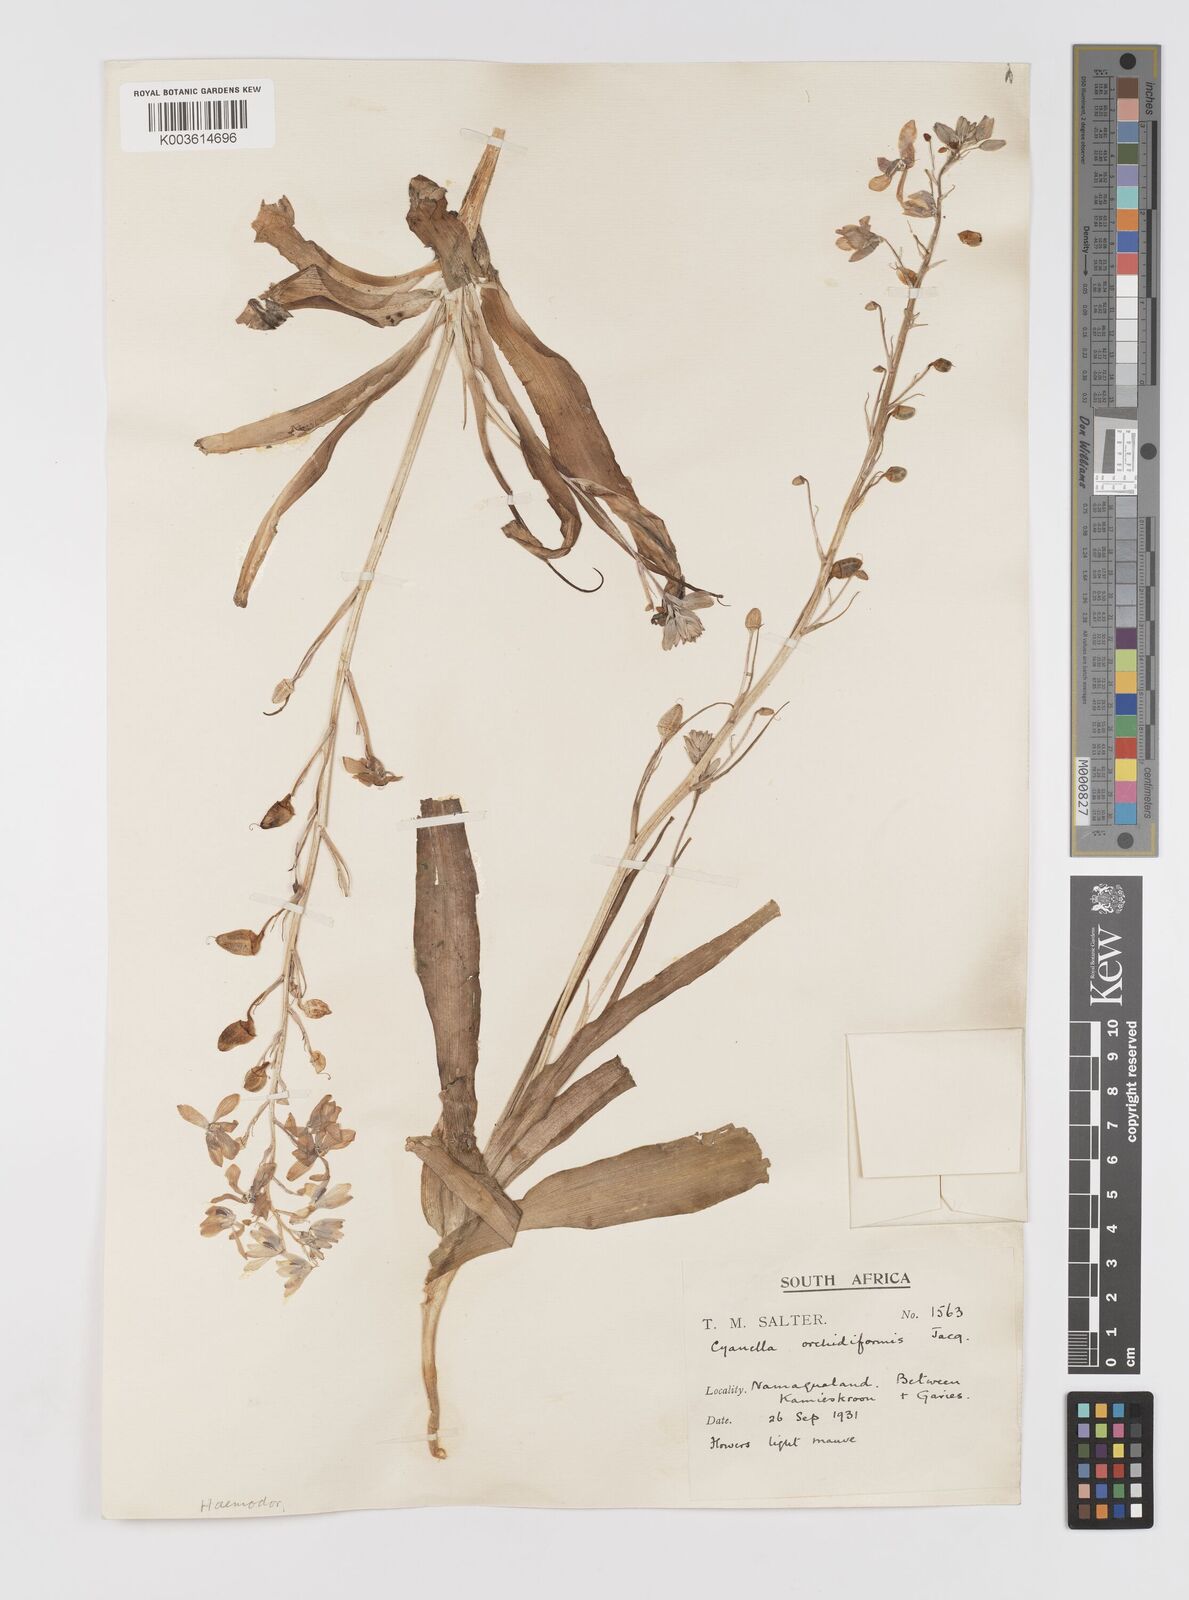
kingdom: Plantae
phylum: Tracheophyta
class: Liliopsida
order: Asparagales
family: Tecophilaeaceae
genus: Cyanella
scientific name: Cyanella orchidiformis
